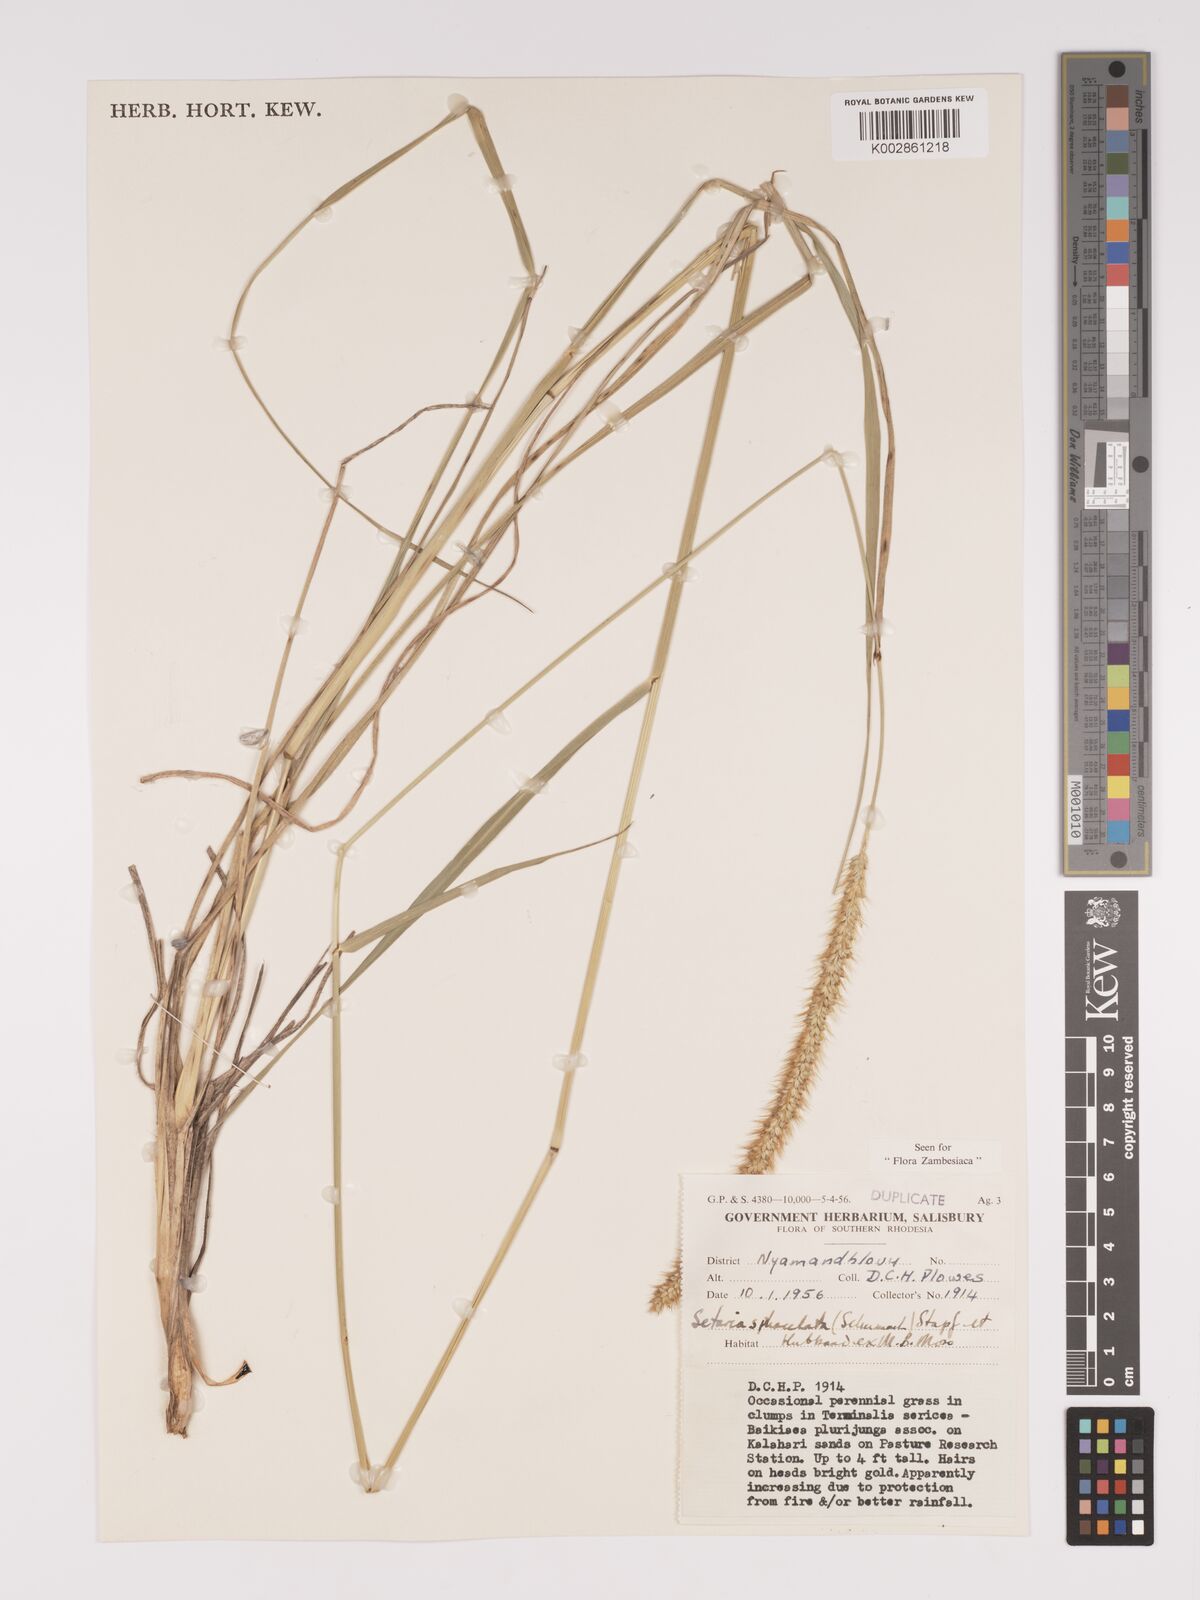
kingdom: Plantae
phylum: Tracheophyta
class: Liliopsida
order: Poales
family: Poaceae
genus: Setaria
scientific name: Setaria sphacelata
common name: African bristlegrass
